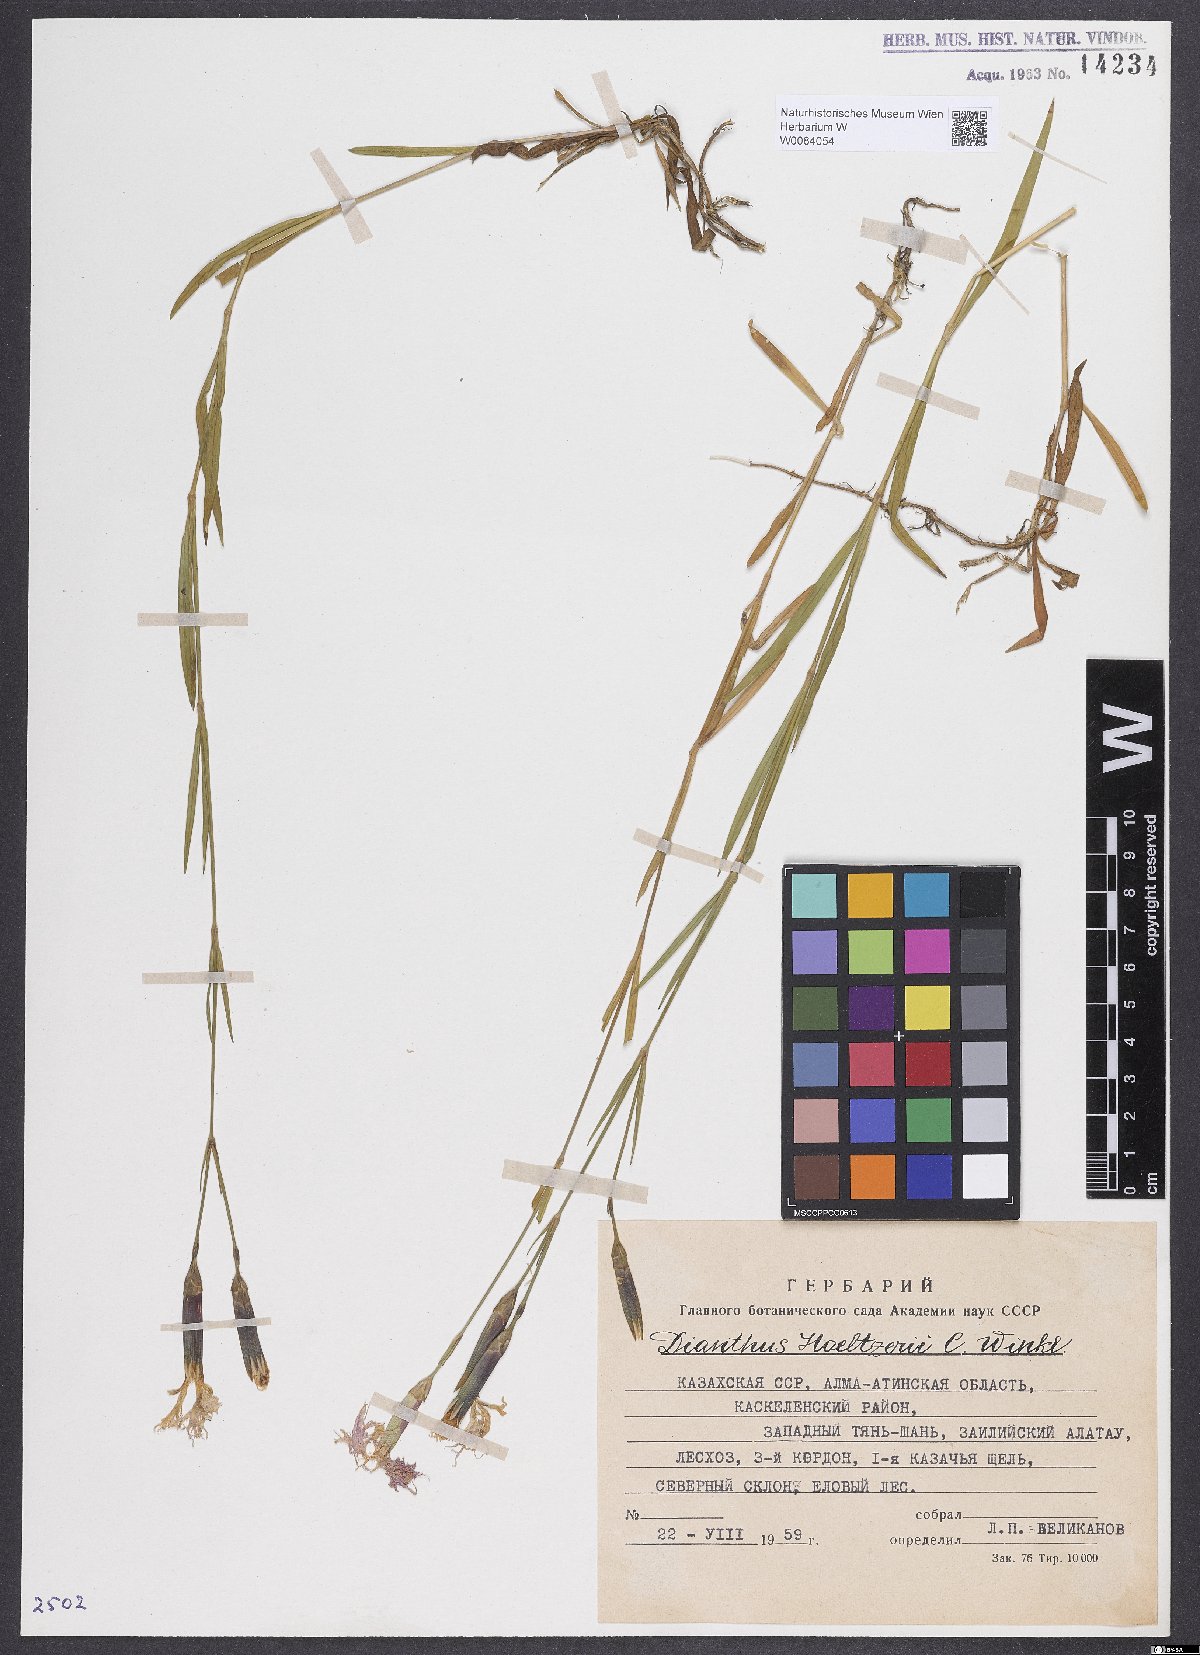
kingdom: Plantae
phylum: Tracheophyta
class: Magnoliopsida
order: Caryophyllales
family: Caryophyllaceae
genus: Dianthus
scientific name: Dianthus hoeltzeri
